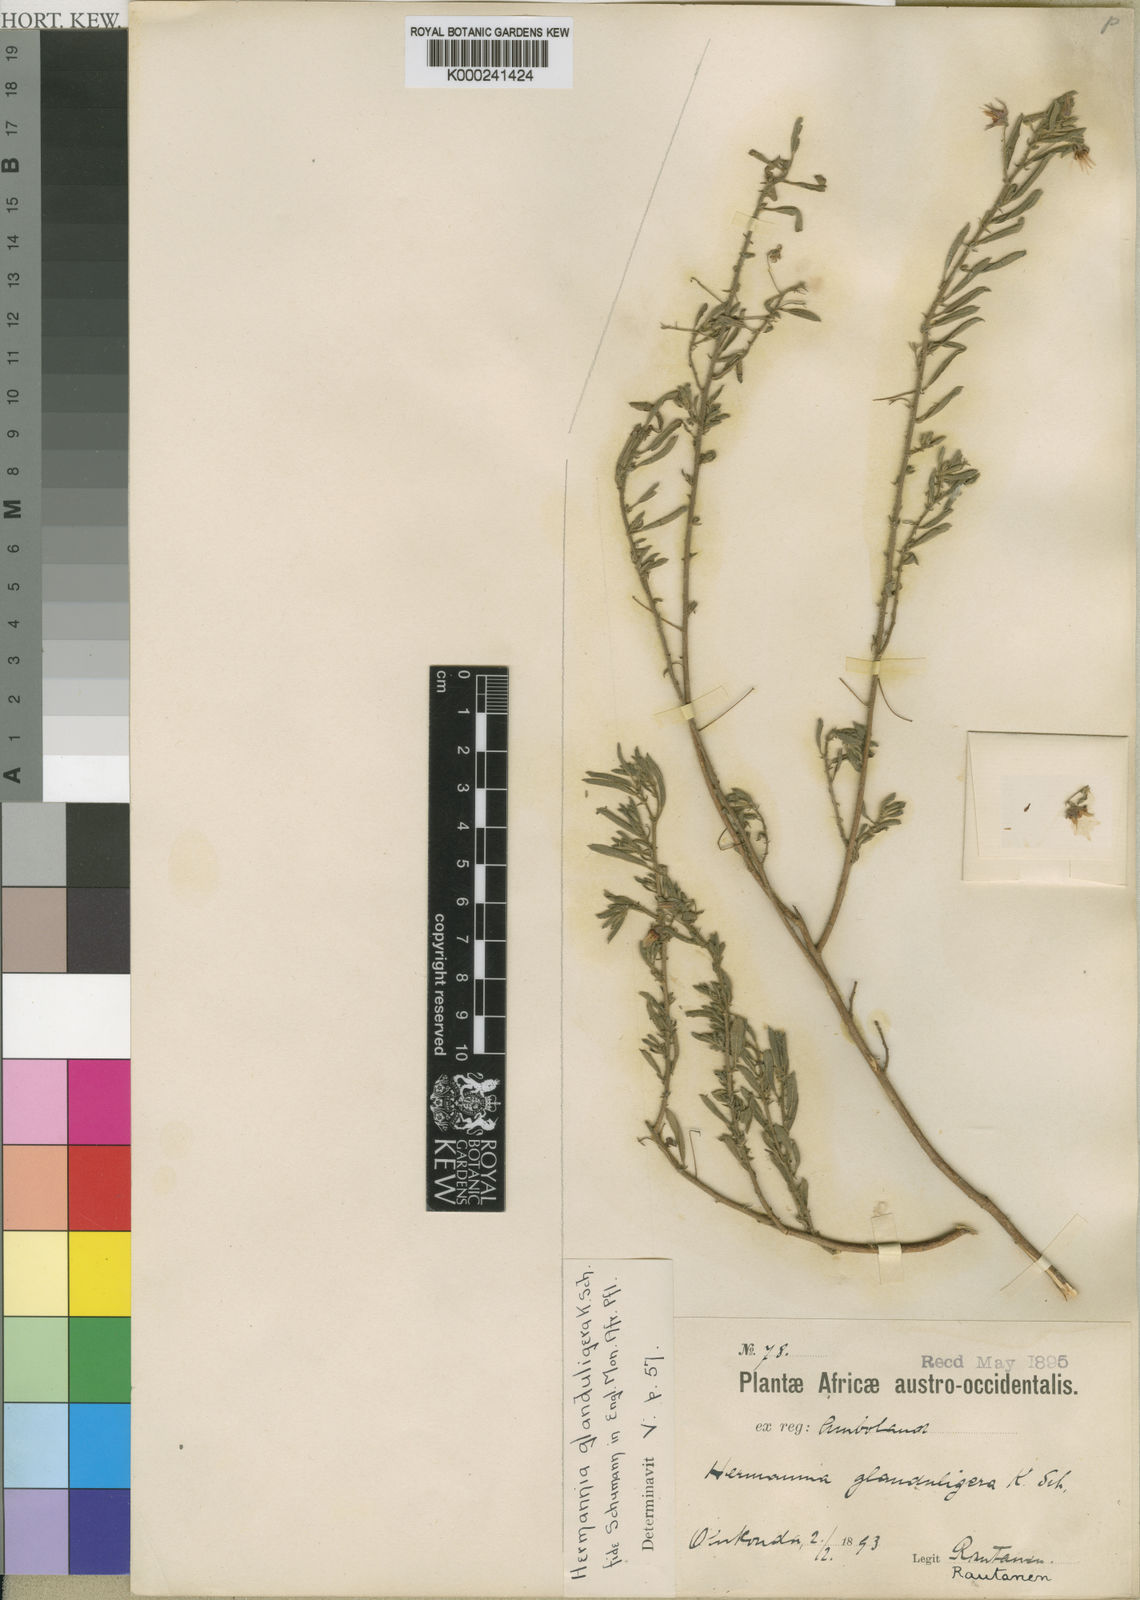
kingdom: Plantae
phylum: Tracheophyta
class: Magnoliopsida
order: Malvales
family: Malvaceae
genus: Hermannia
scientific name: Hermannia glanduligera
